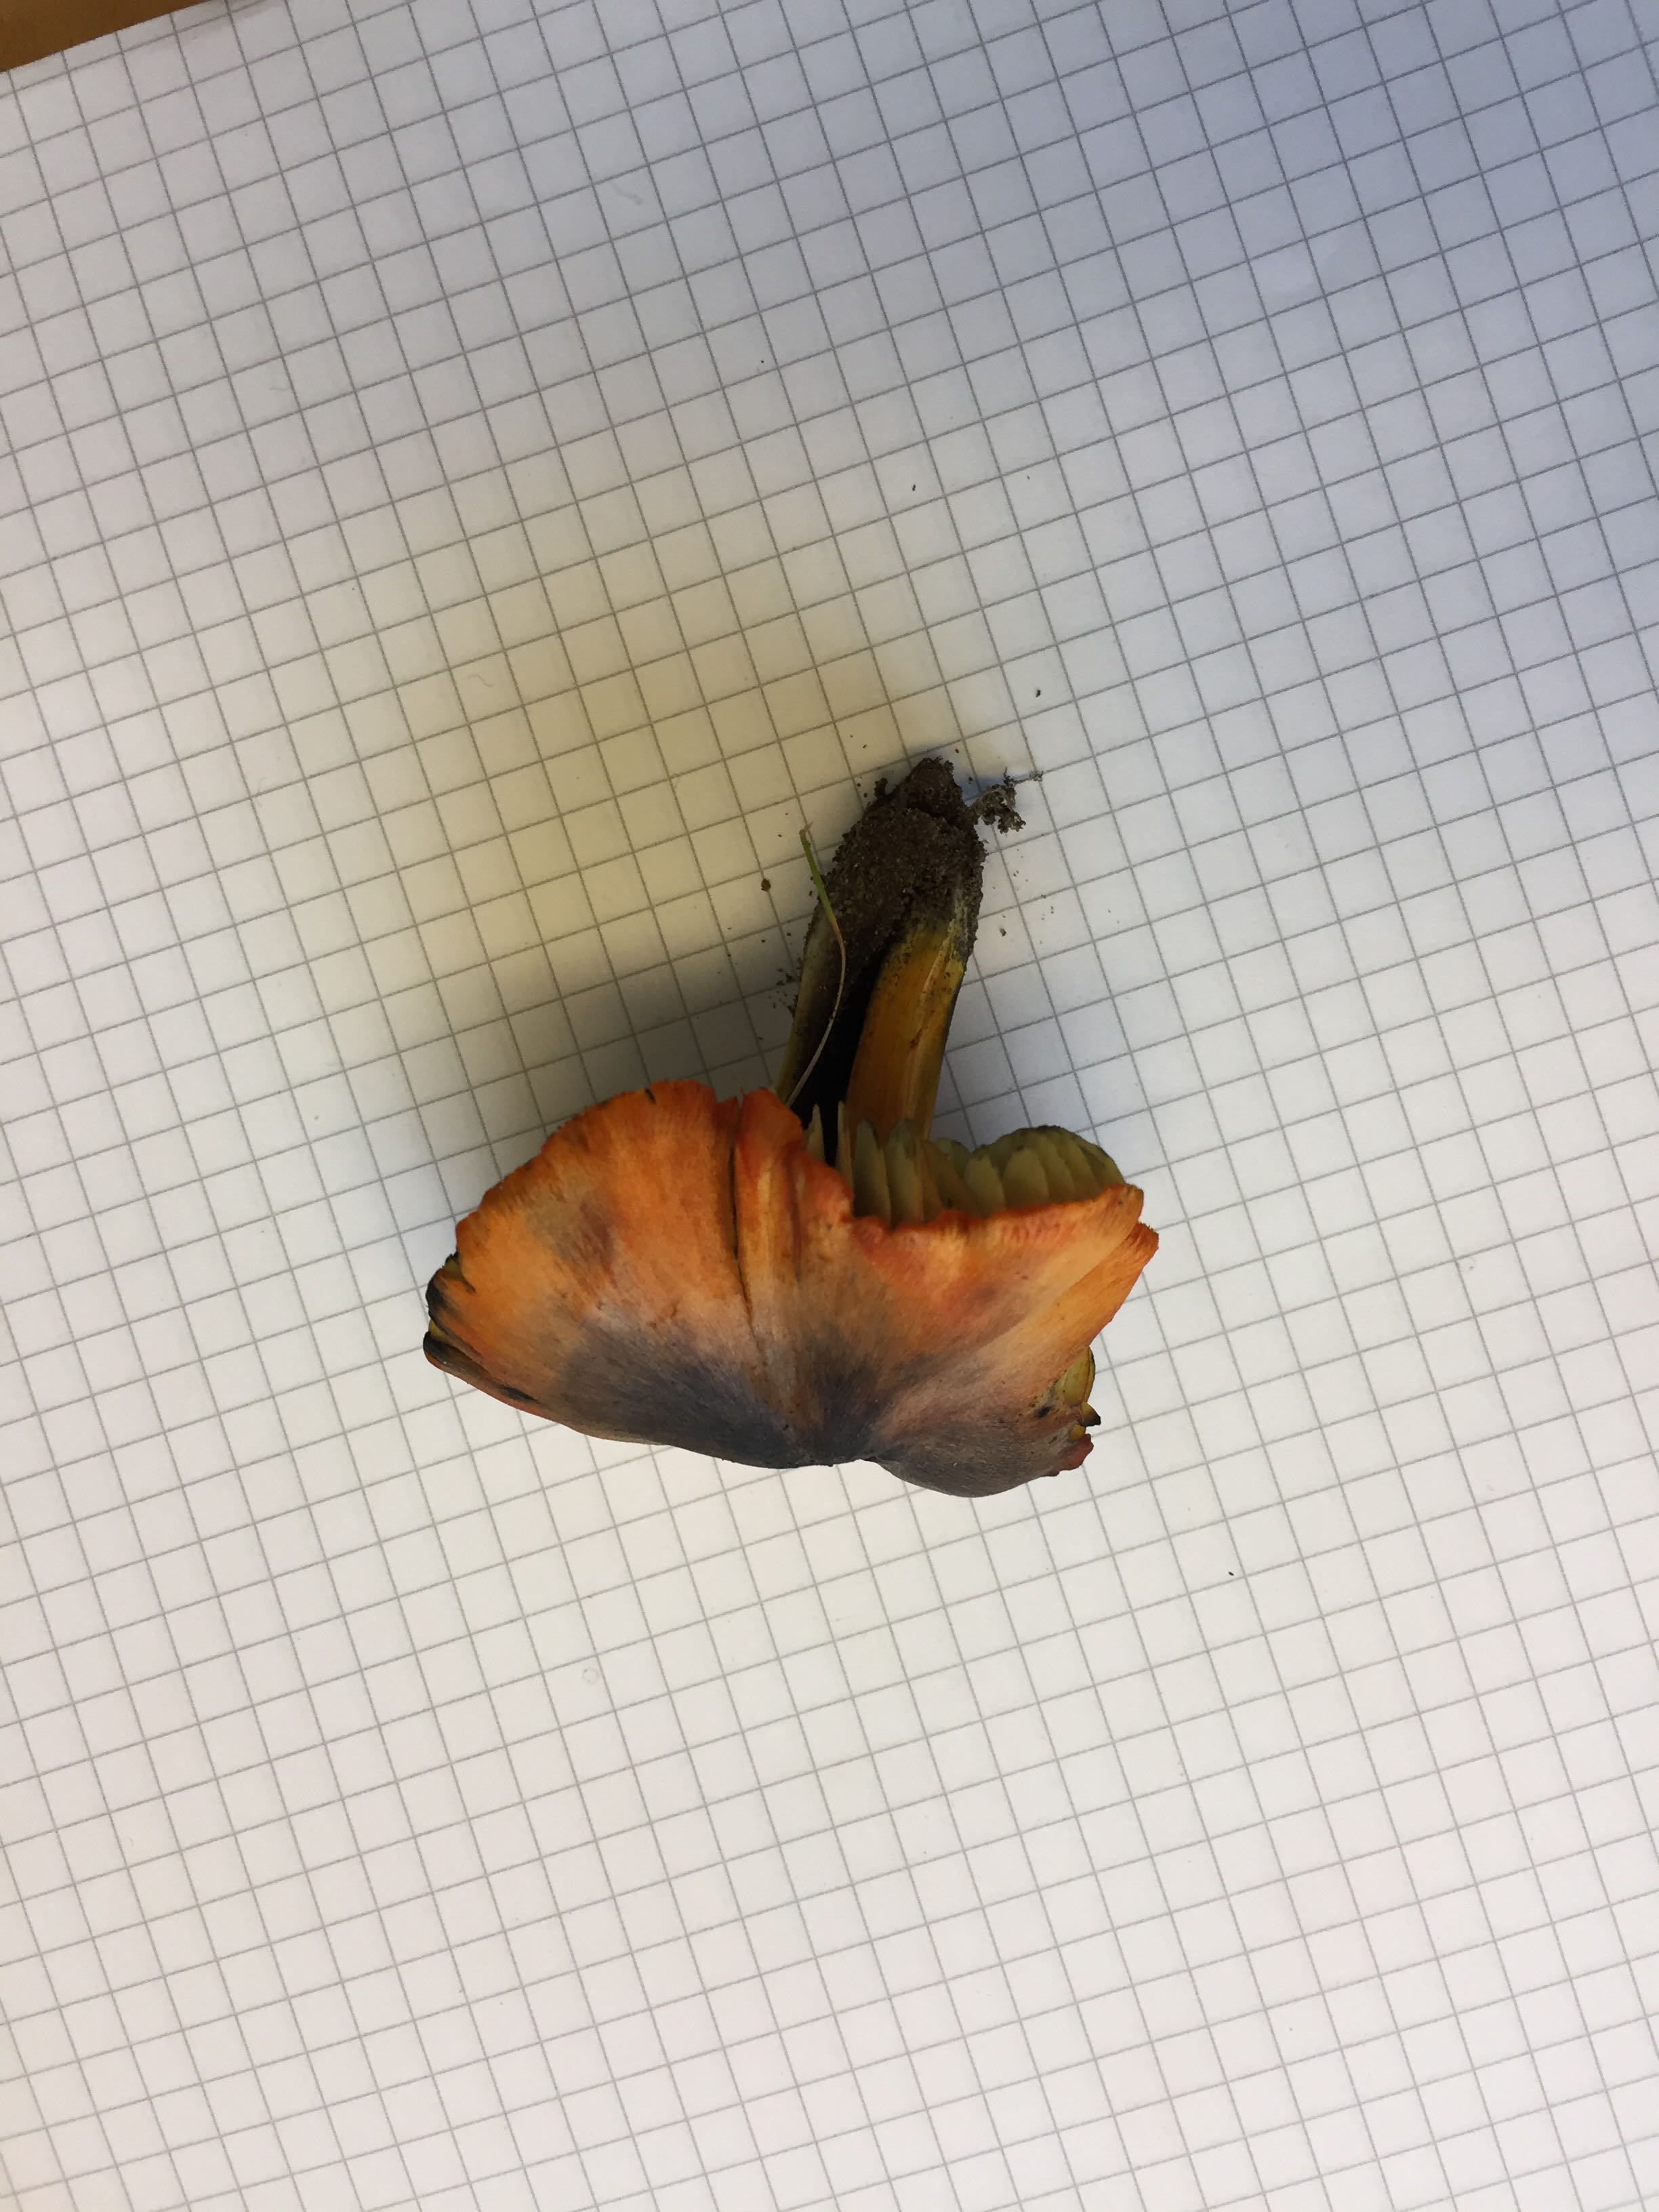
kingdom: Fungi
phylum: Basidiomycota
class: Agaricomycetes
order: Agaricales
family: Hygrophoraceae
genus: Hygrocybe
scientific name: Hygrocybe conica
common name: kegle-vokshat
